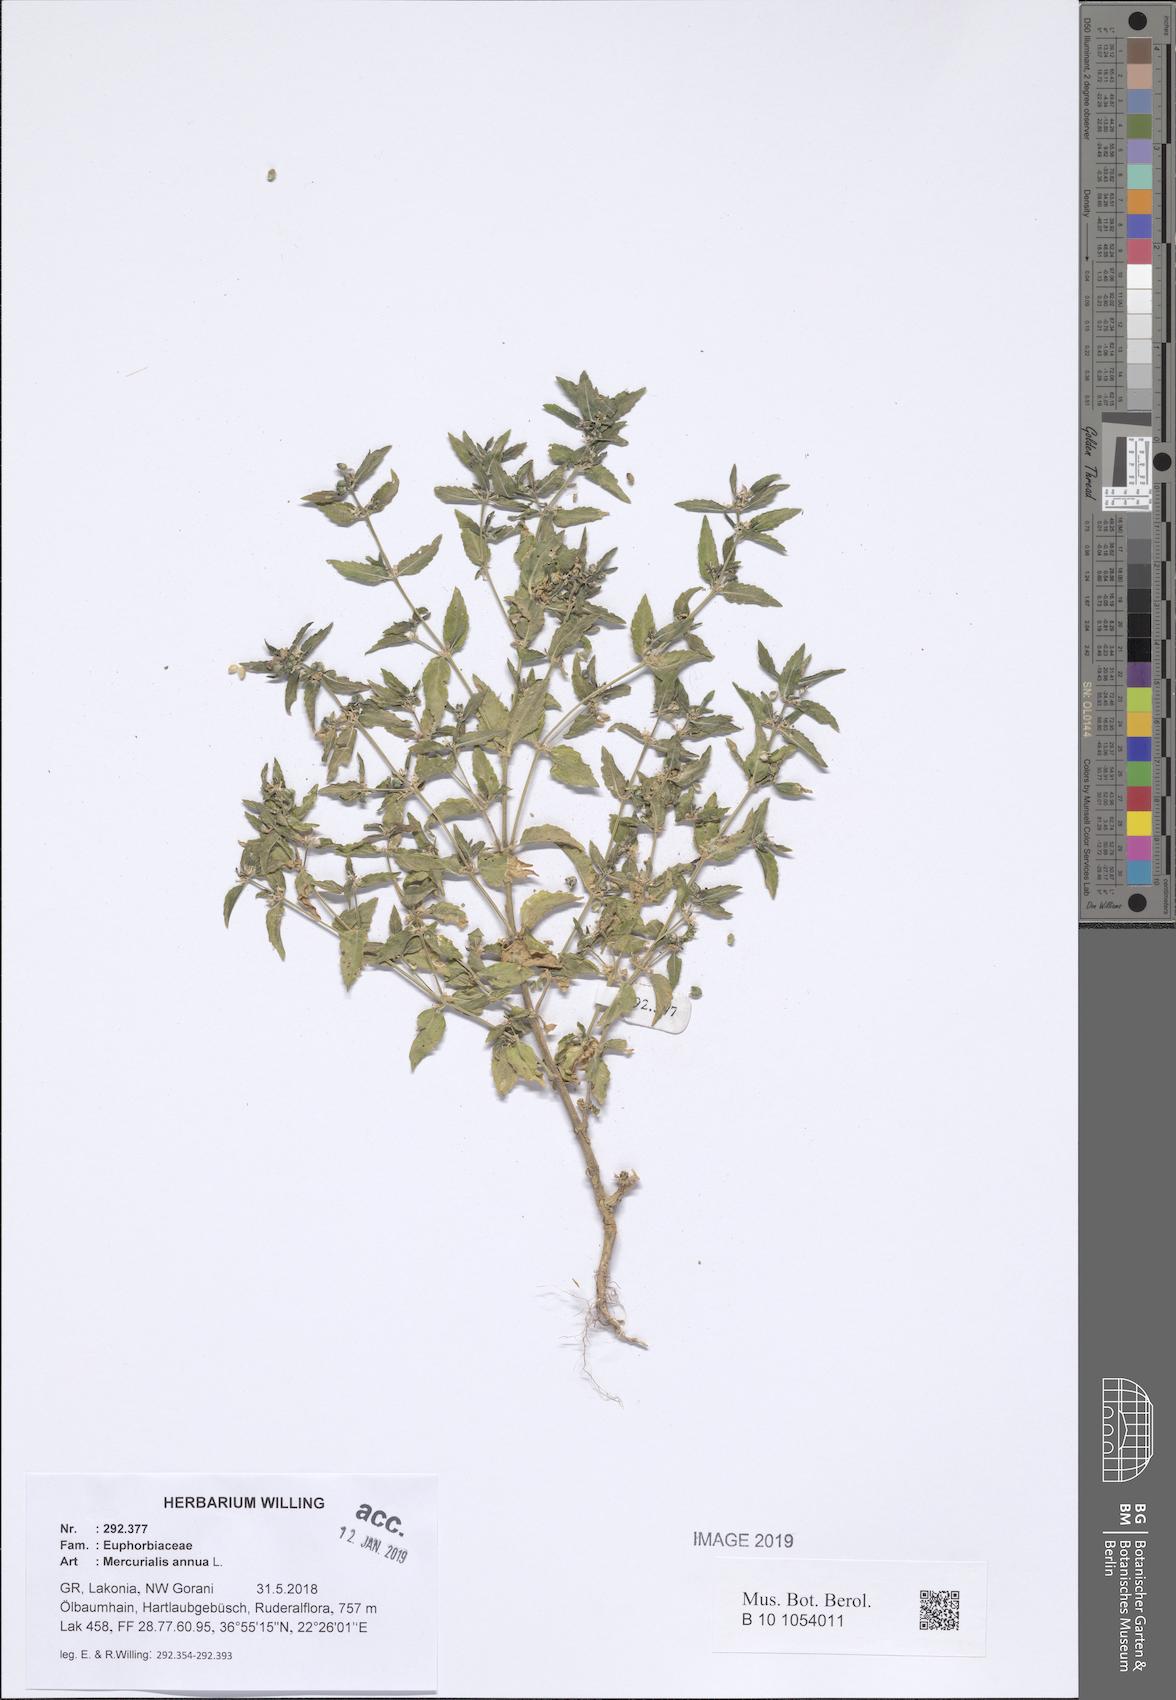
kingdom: Plantae
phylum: Tracheophyta
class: Magnoliopsida
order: Malpighiales
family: Euphorbiaceae
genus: Mercurialis
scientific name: Mercurialis annua
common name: Annual mercury
